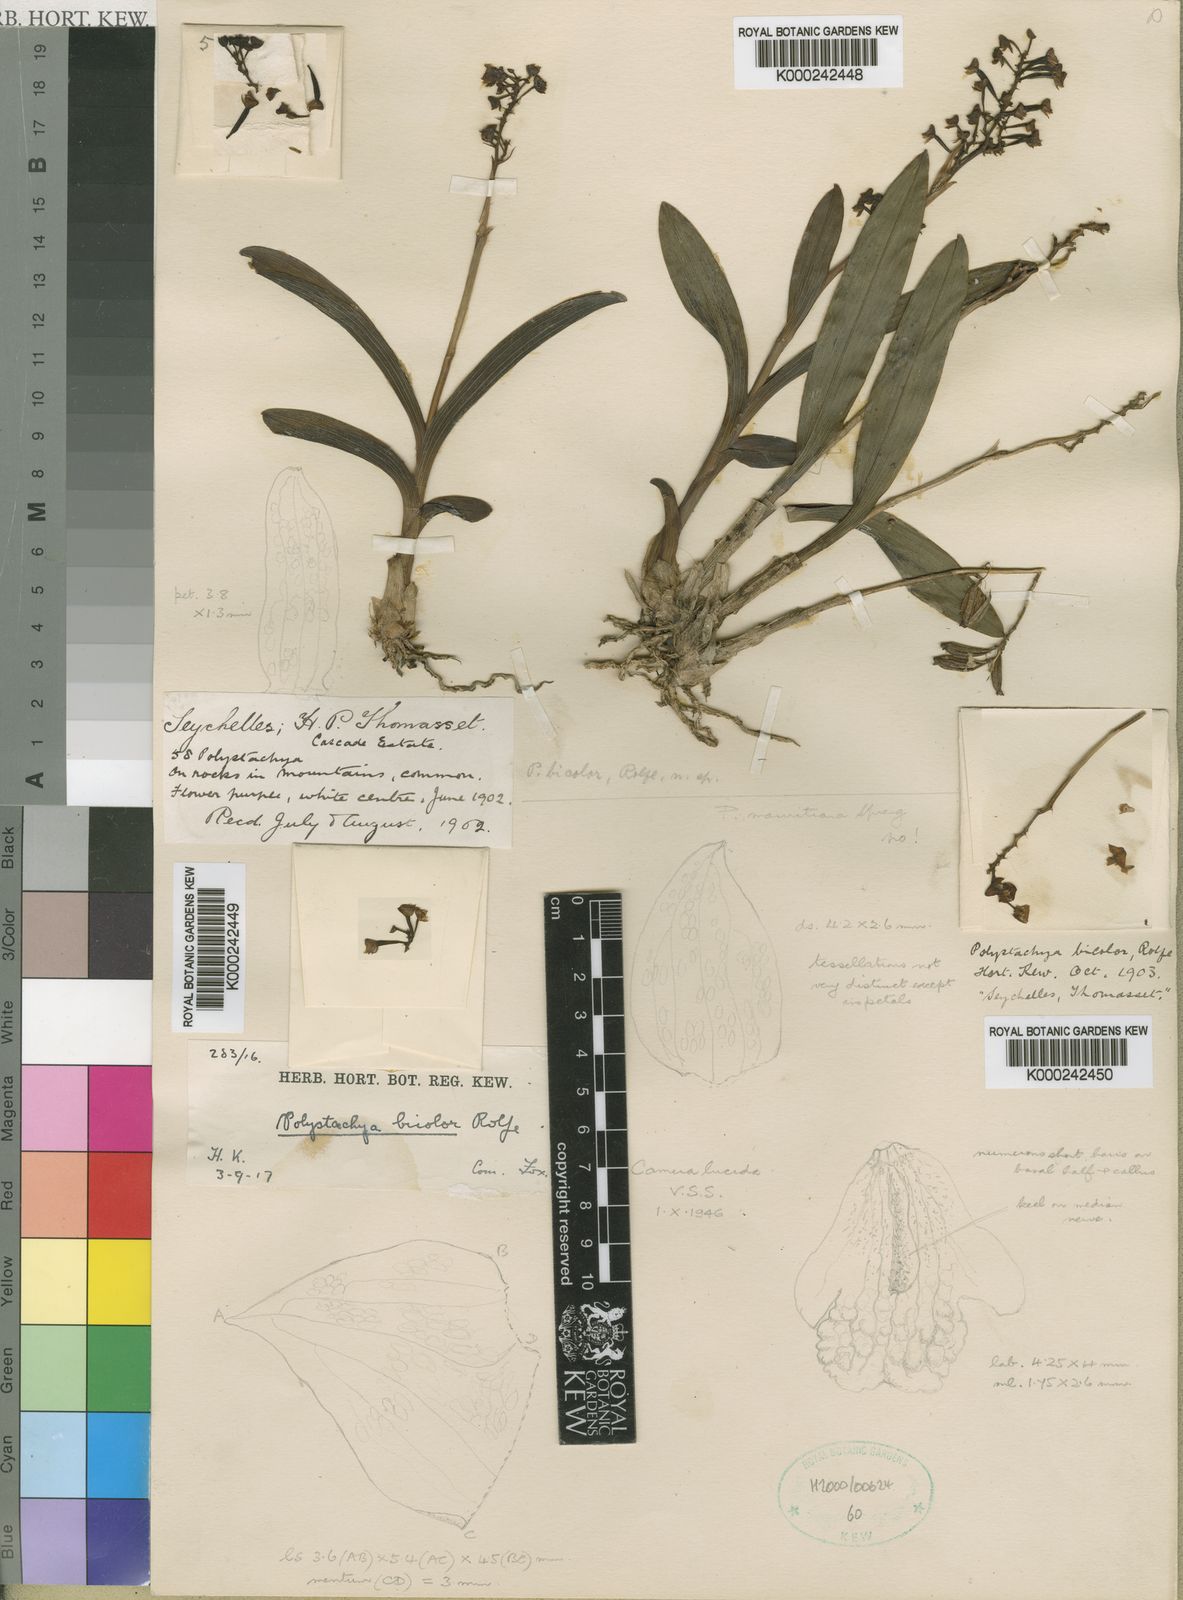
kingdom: Plantae
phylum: Tracheophyta
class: Liliopsida
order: Asparagales
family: Orchidaceae
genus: Polystachya
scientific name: Polystachya rosea
